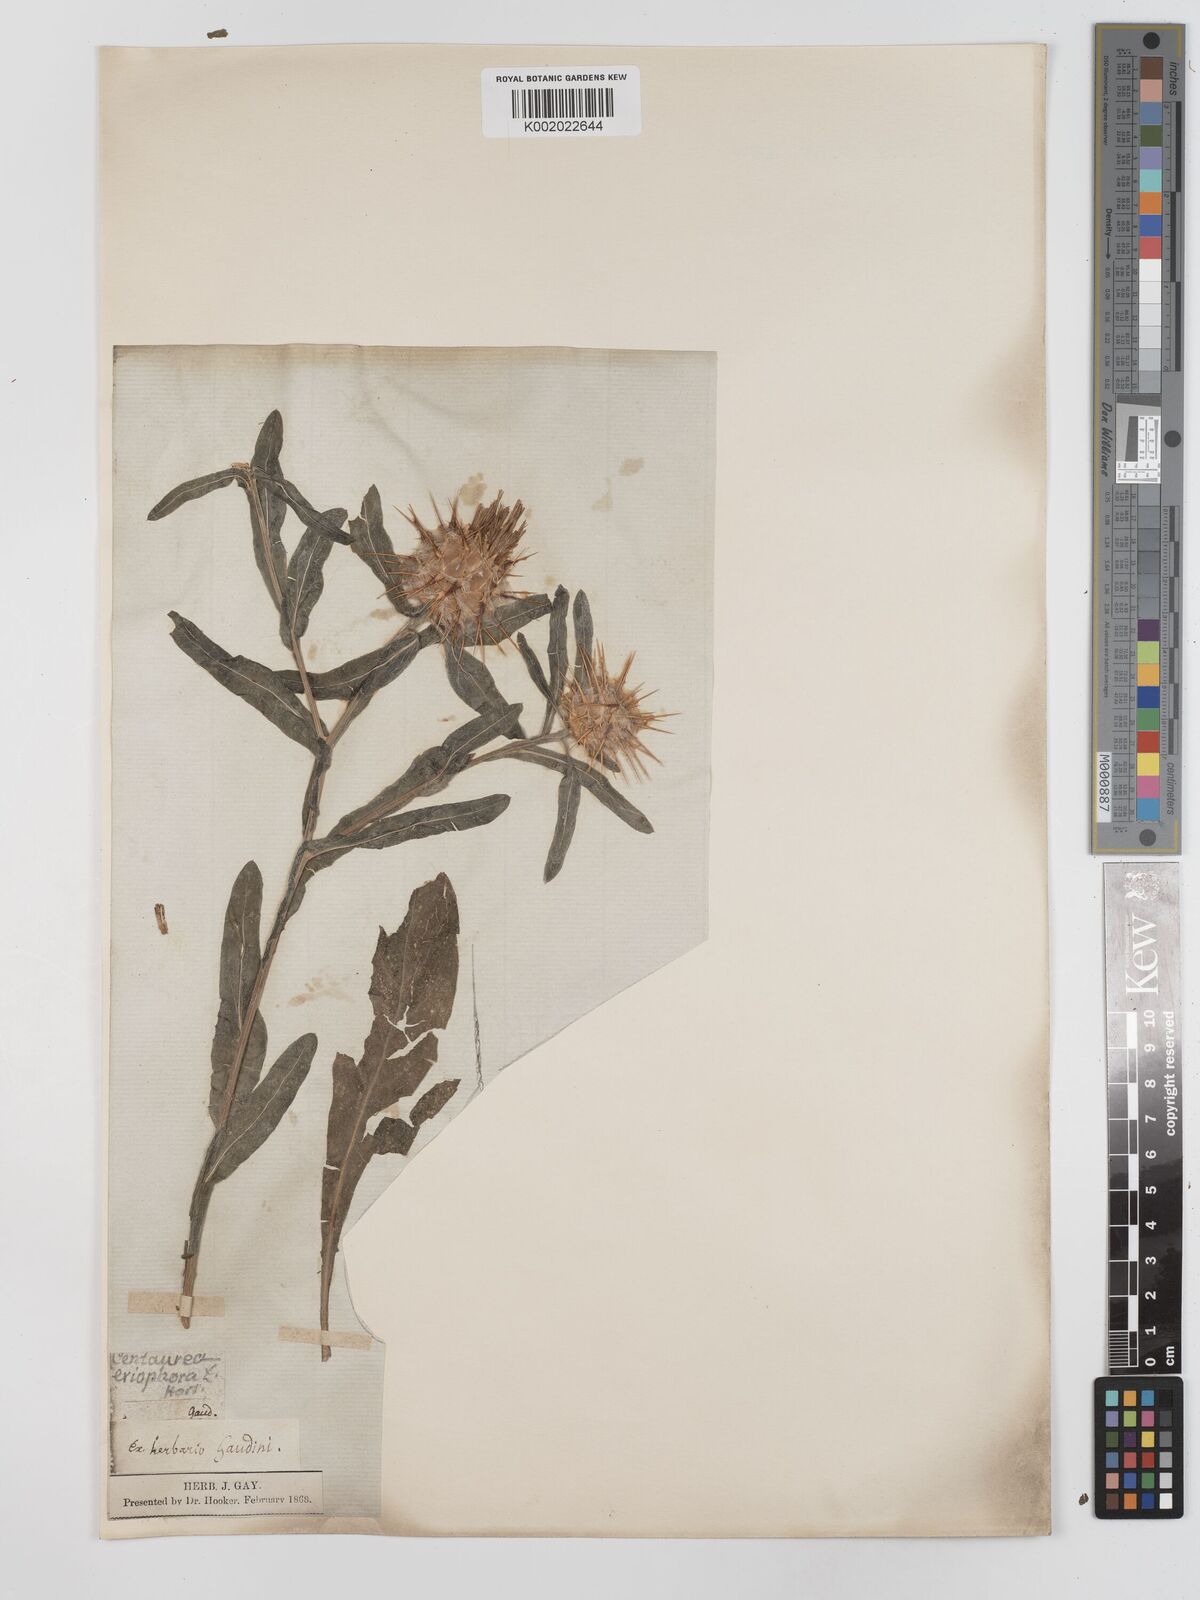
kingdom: Plantae
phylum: Tracheophyta
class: Magnoliopsida
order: Asterales
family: Asteraceae
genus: Centaurea
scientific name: Centaurea eriophora
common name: Wild sandheath
